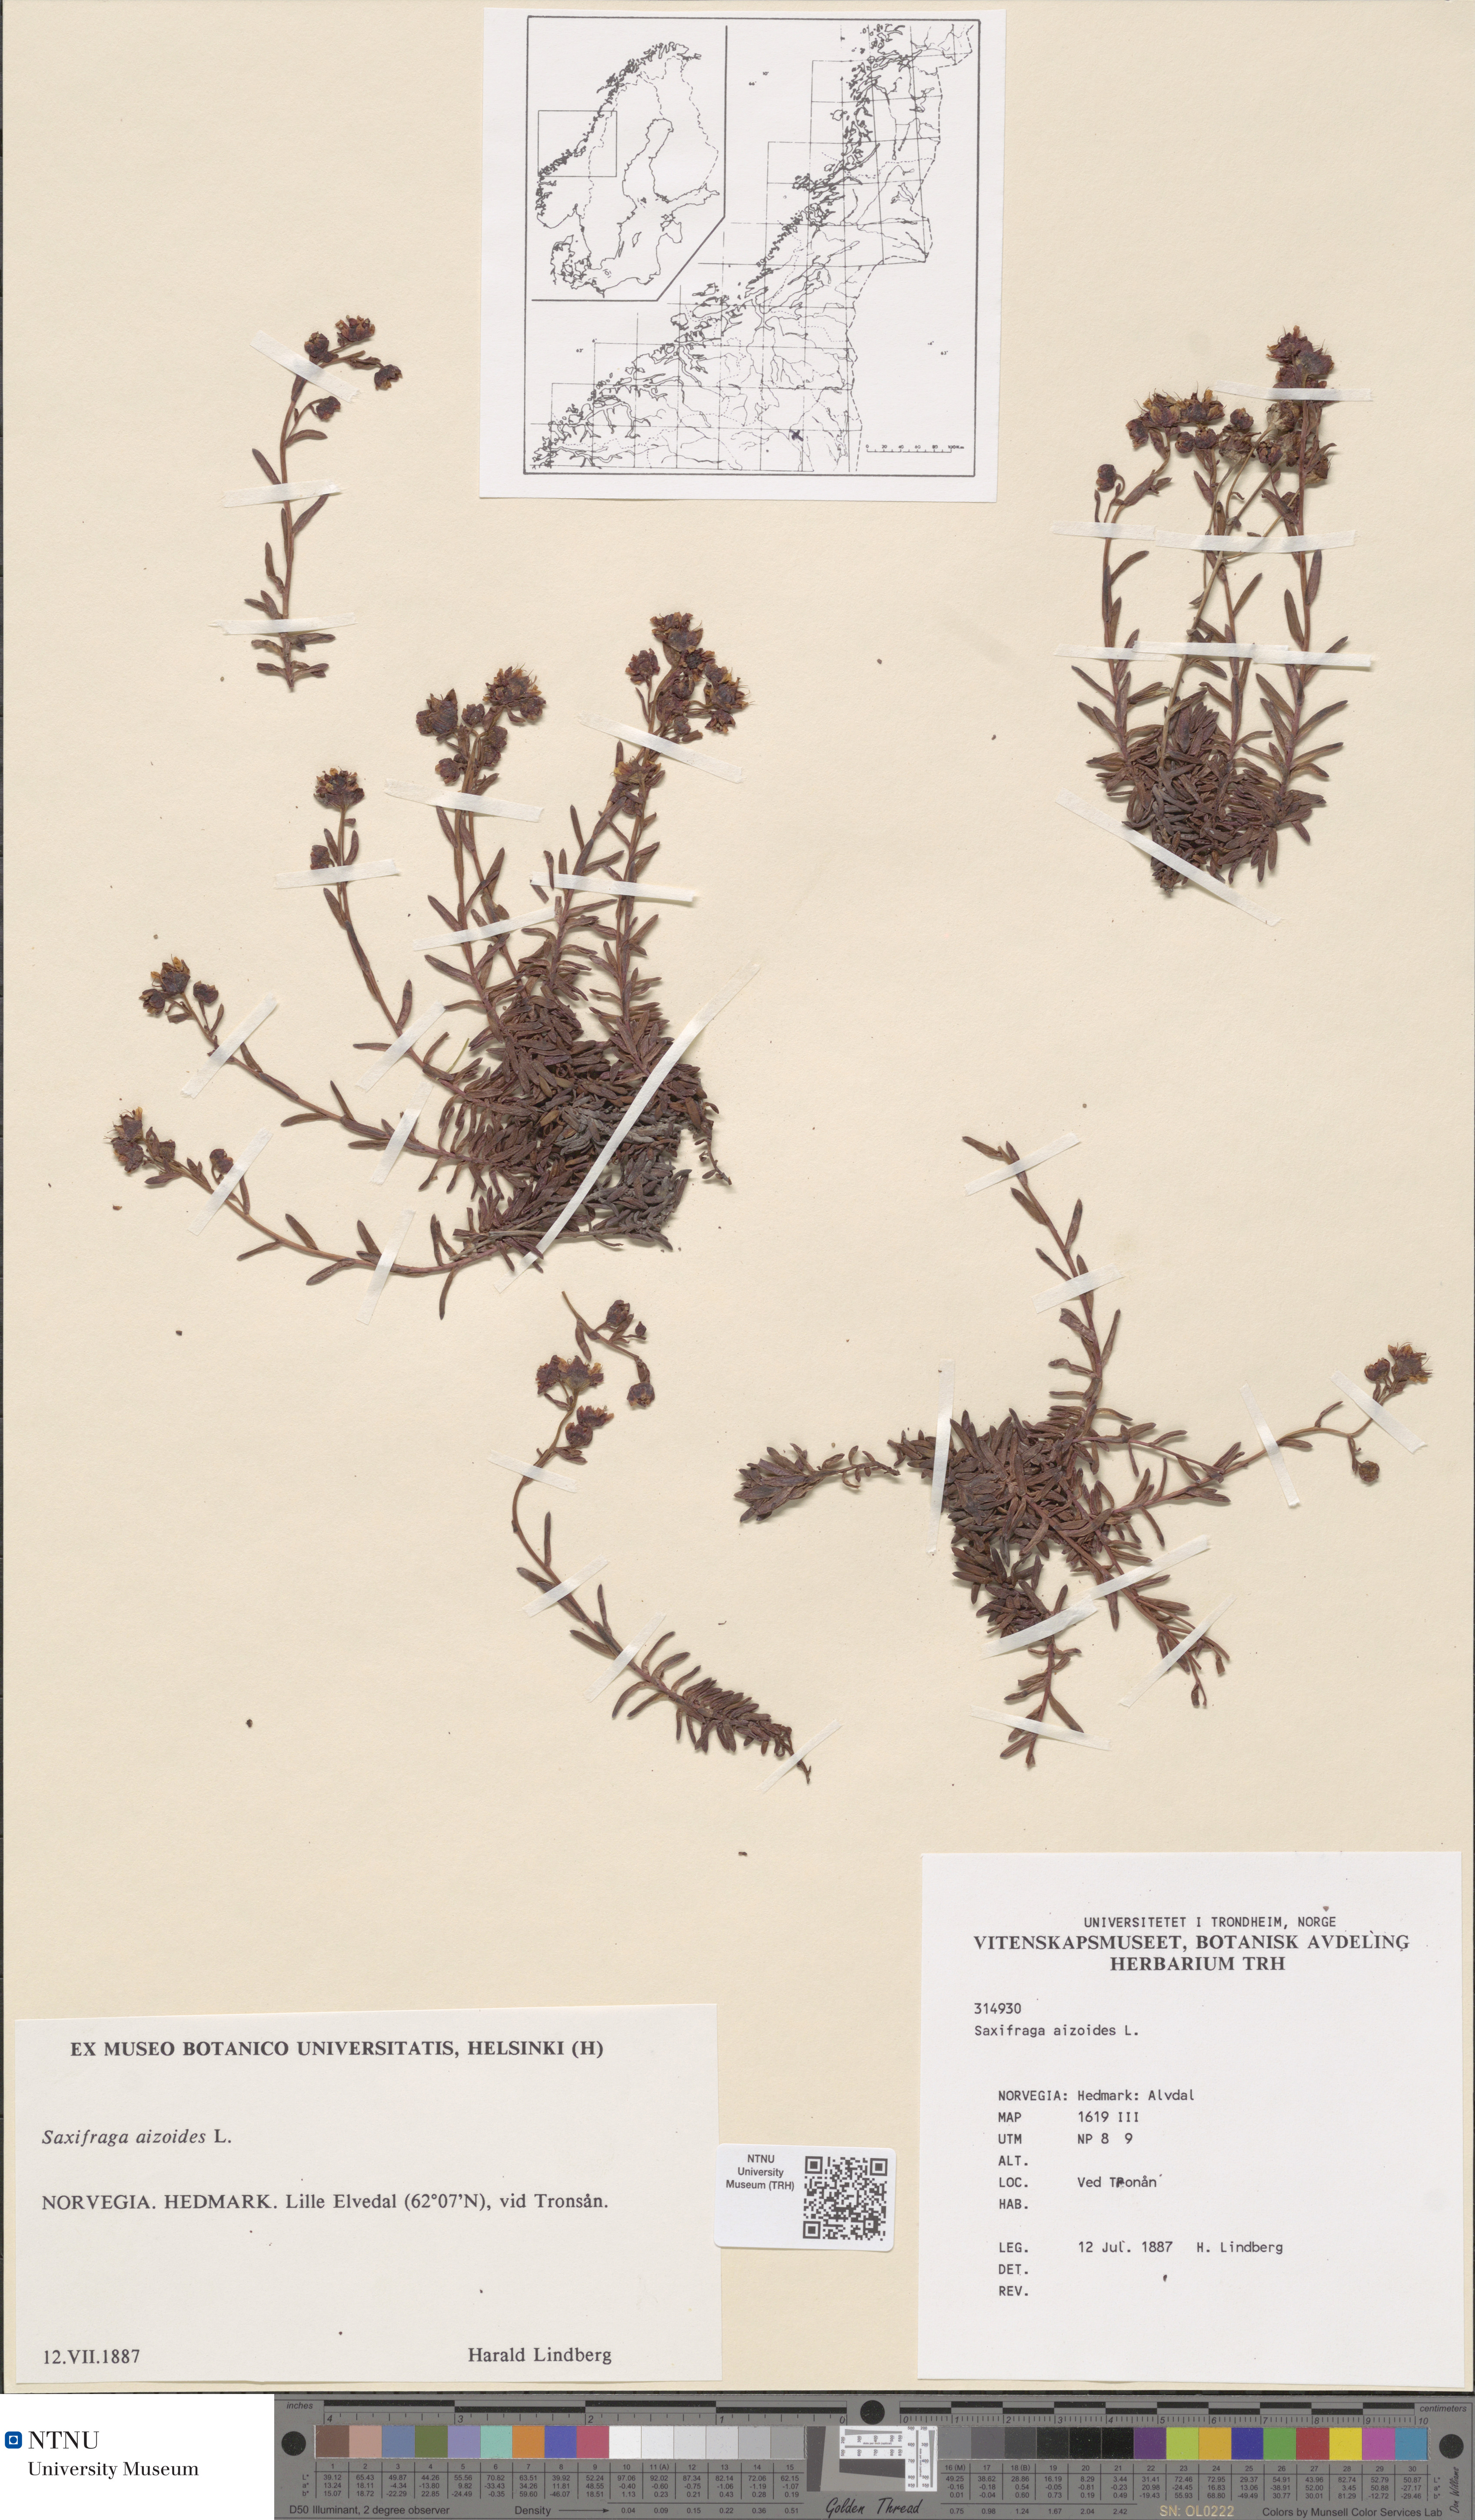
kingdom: Plantae
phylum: Tracheophyta
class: Magnoliopsida
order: Saxifragales
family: Saxifragaceae
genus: Saxifraga
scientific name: Saxifraga aizoides
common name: Yellow mountain saxifrage
